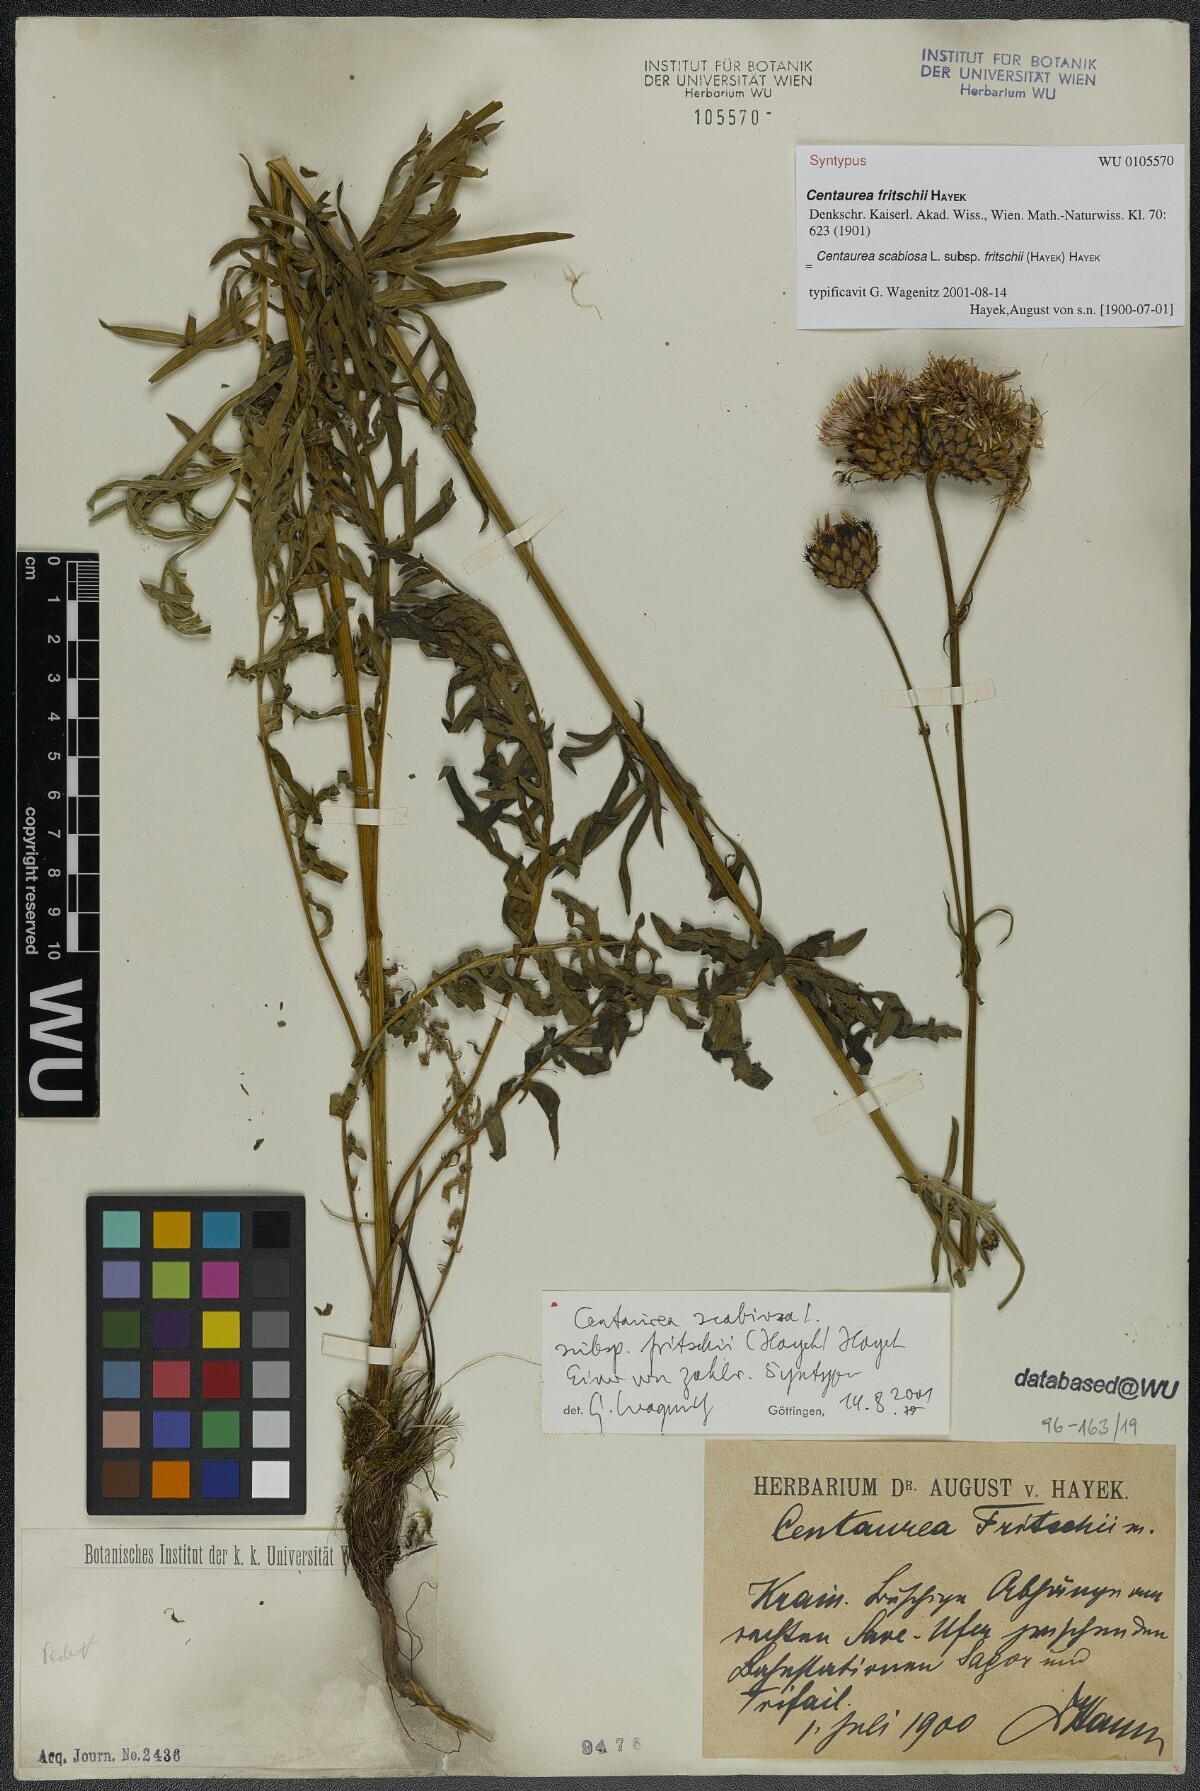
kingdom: Plantae
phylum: Tracheophyta
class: Magnoliopsida
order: Asterales
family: Asteraceae
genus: Centaurea
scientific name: Centaurea scabiosa
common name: Greater knapweed
